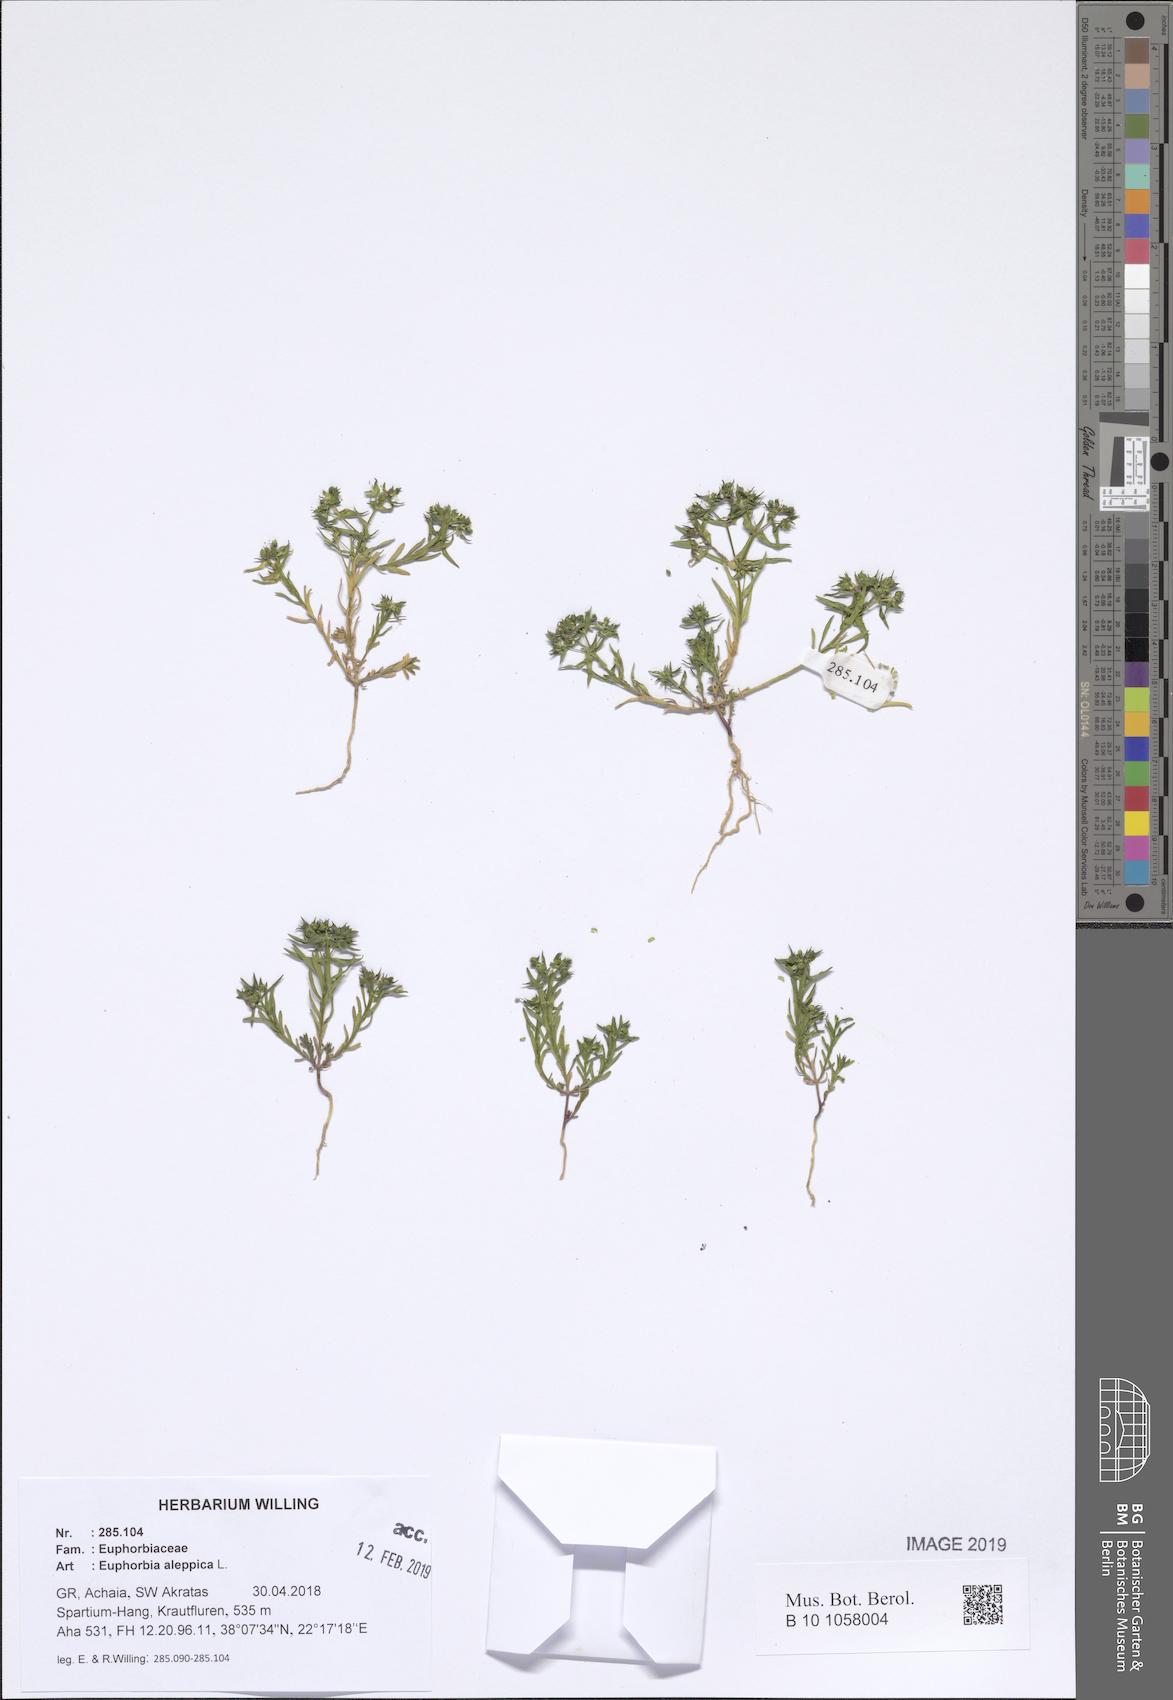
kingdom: Plantae
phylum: Tracheophyta
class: Magnoliopsida
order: Malpighiales
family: Euphorbiaceae
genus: Euphorbia
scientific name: Euphorbia exigua
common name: Dwarf spurge
